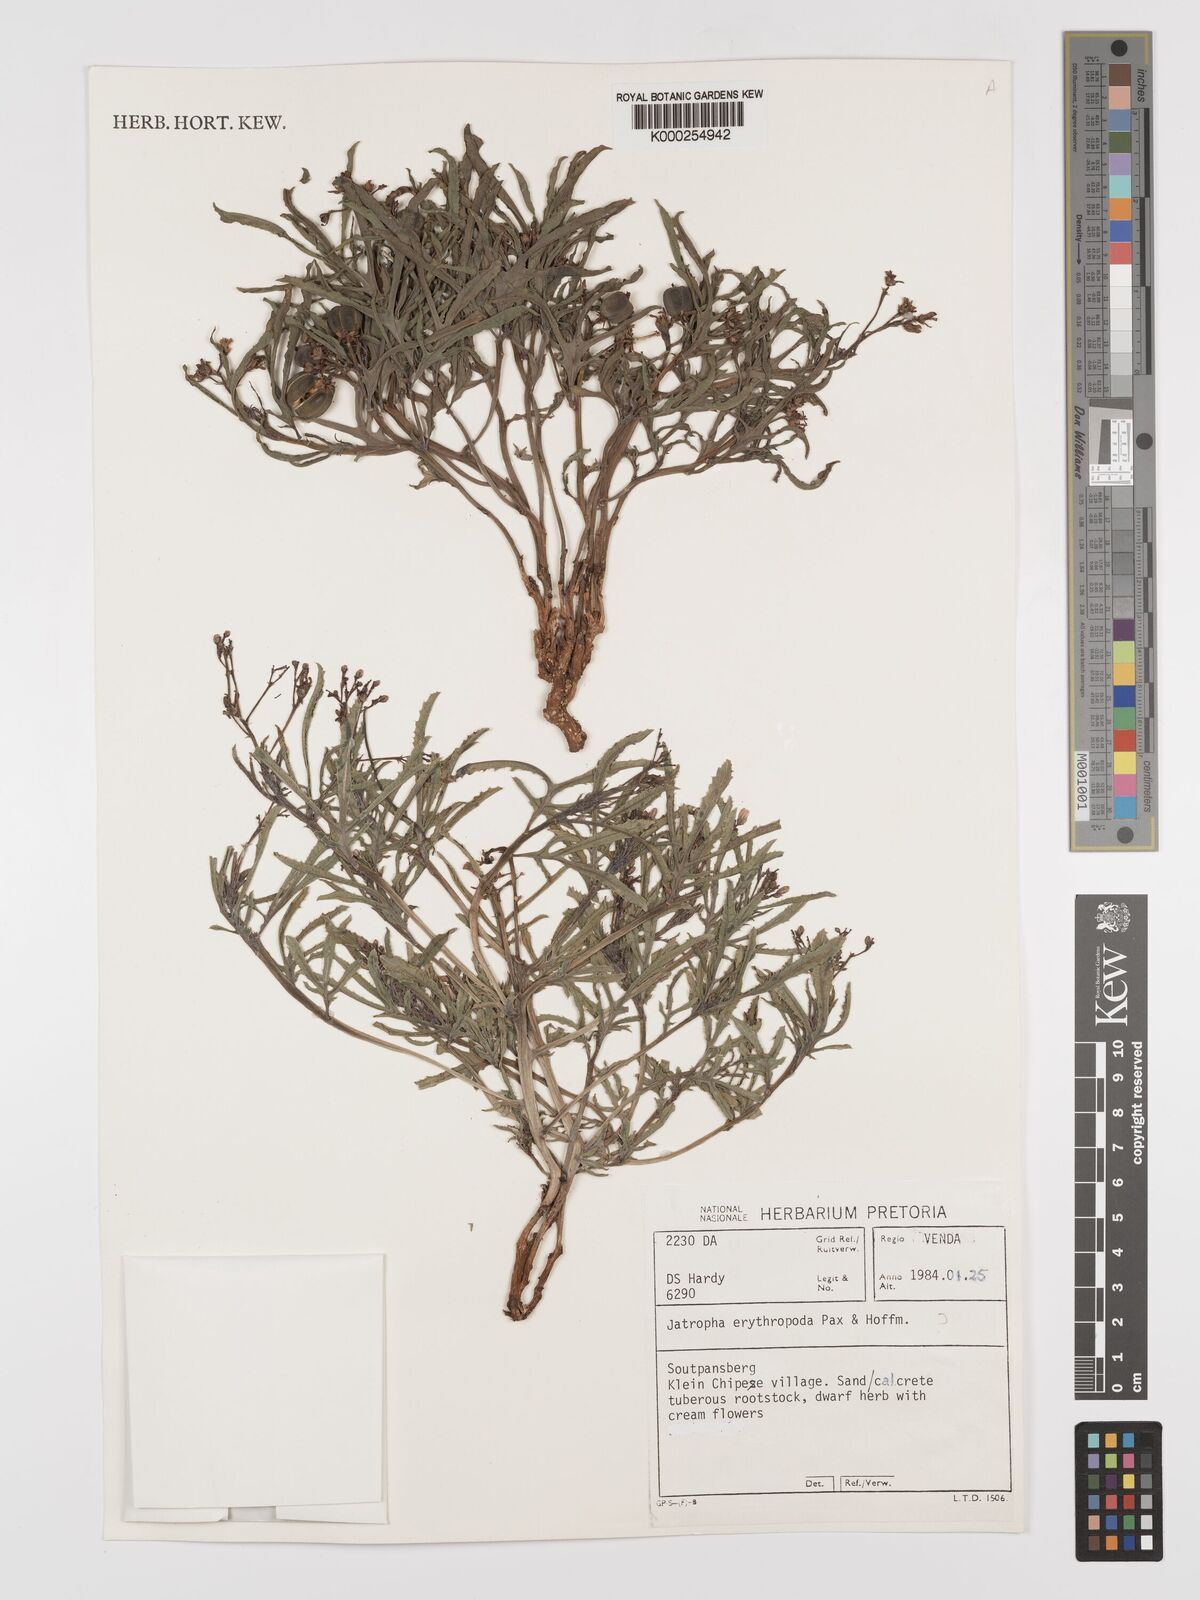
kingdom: Plantae
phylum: Tracheophyta
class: Magnoliopsida
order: Malpighiales
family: Euphorbiaceae
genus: Jatropha
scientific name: Jatropha erythropoda
